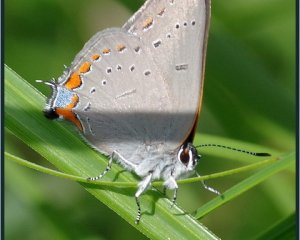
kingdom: Animalia
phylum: Arthropoda
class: Insecta
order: Lepidoptera
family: Lycaenidae
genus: Strymon
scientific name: Strymon acadica
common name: Acadian Hairstreak
